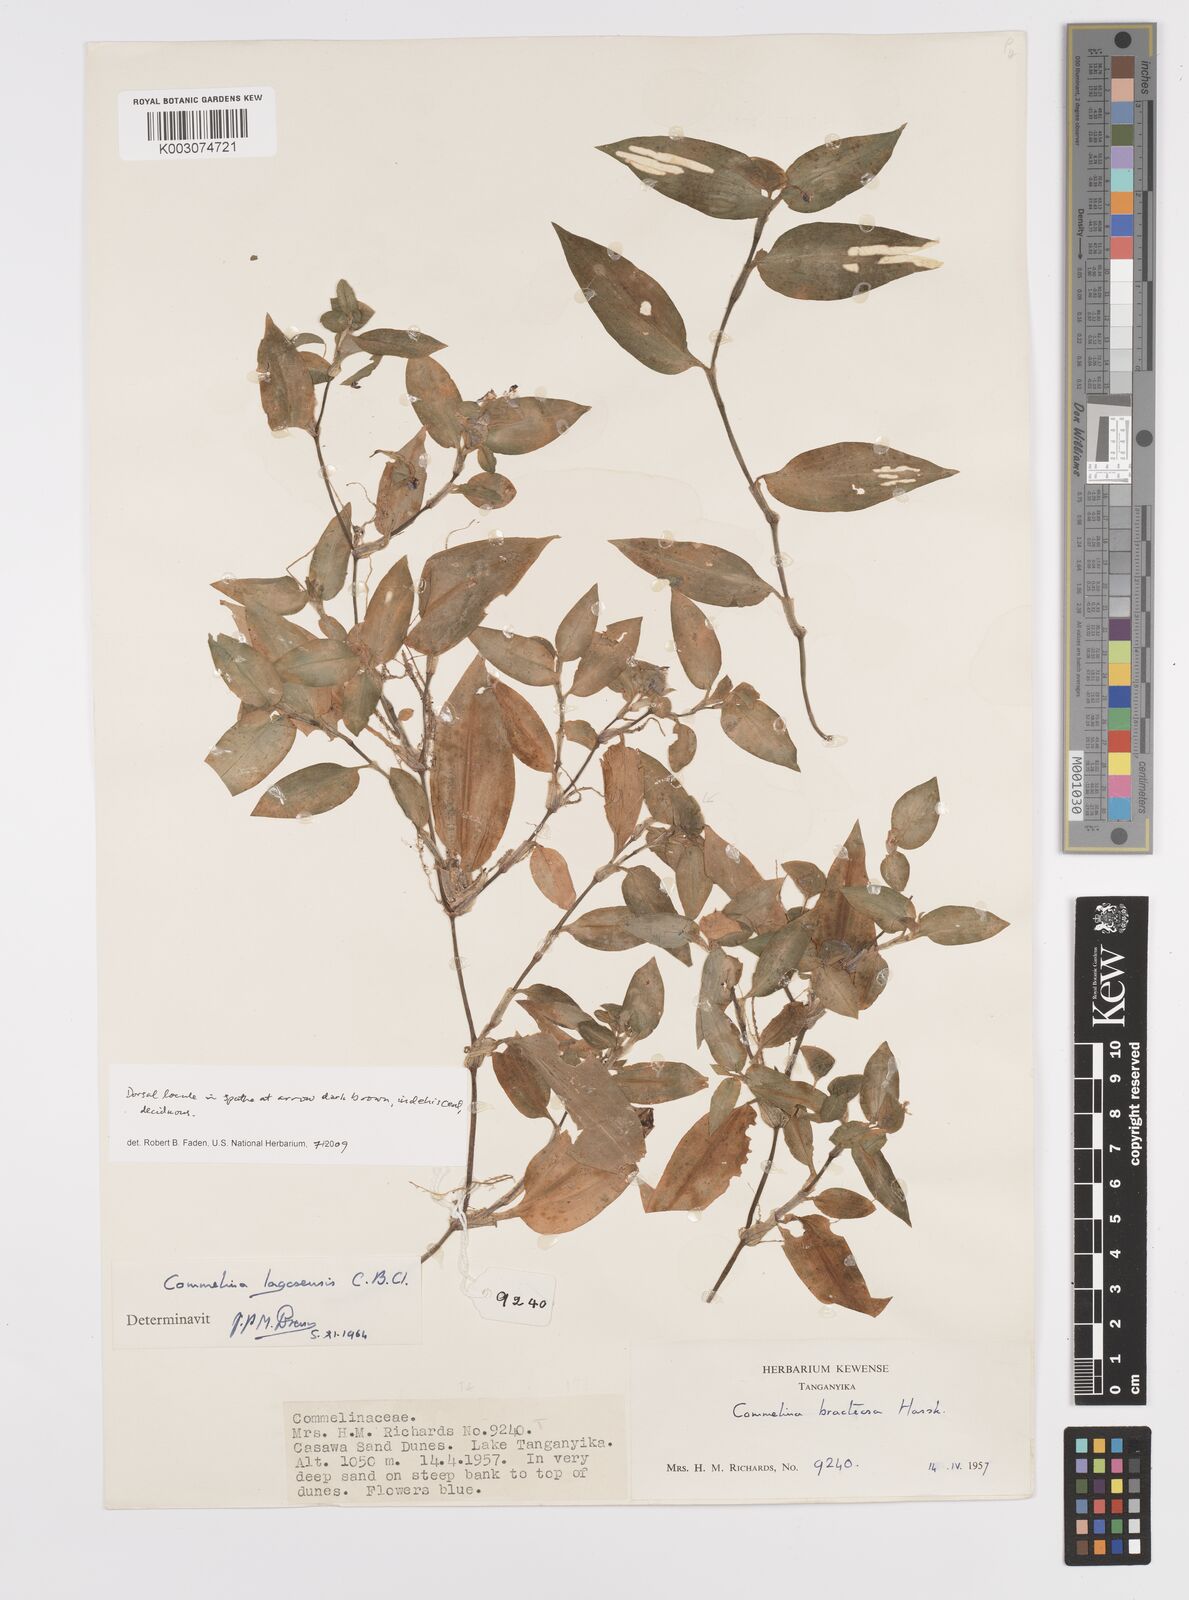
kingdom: Plantae
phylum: Tracheophyta
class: Liliopsida
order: Commelinales
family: Commelinaceae
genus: Commelina
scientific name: Commelina bracteosa
